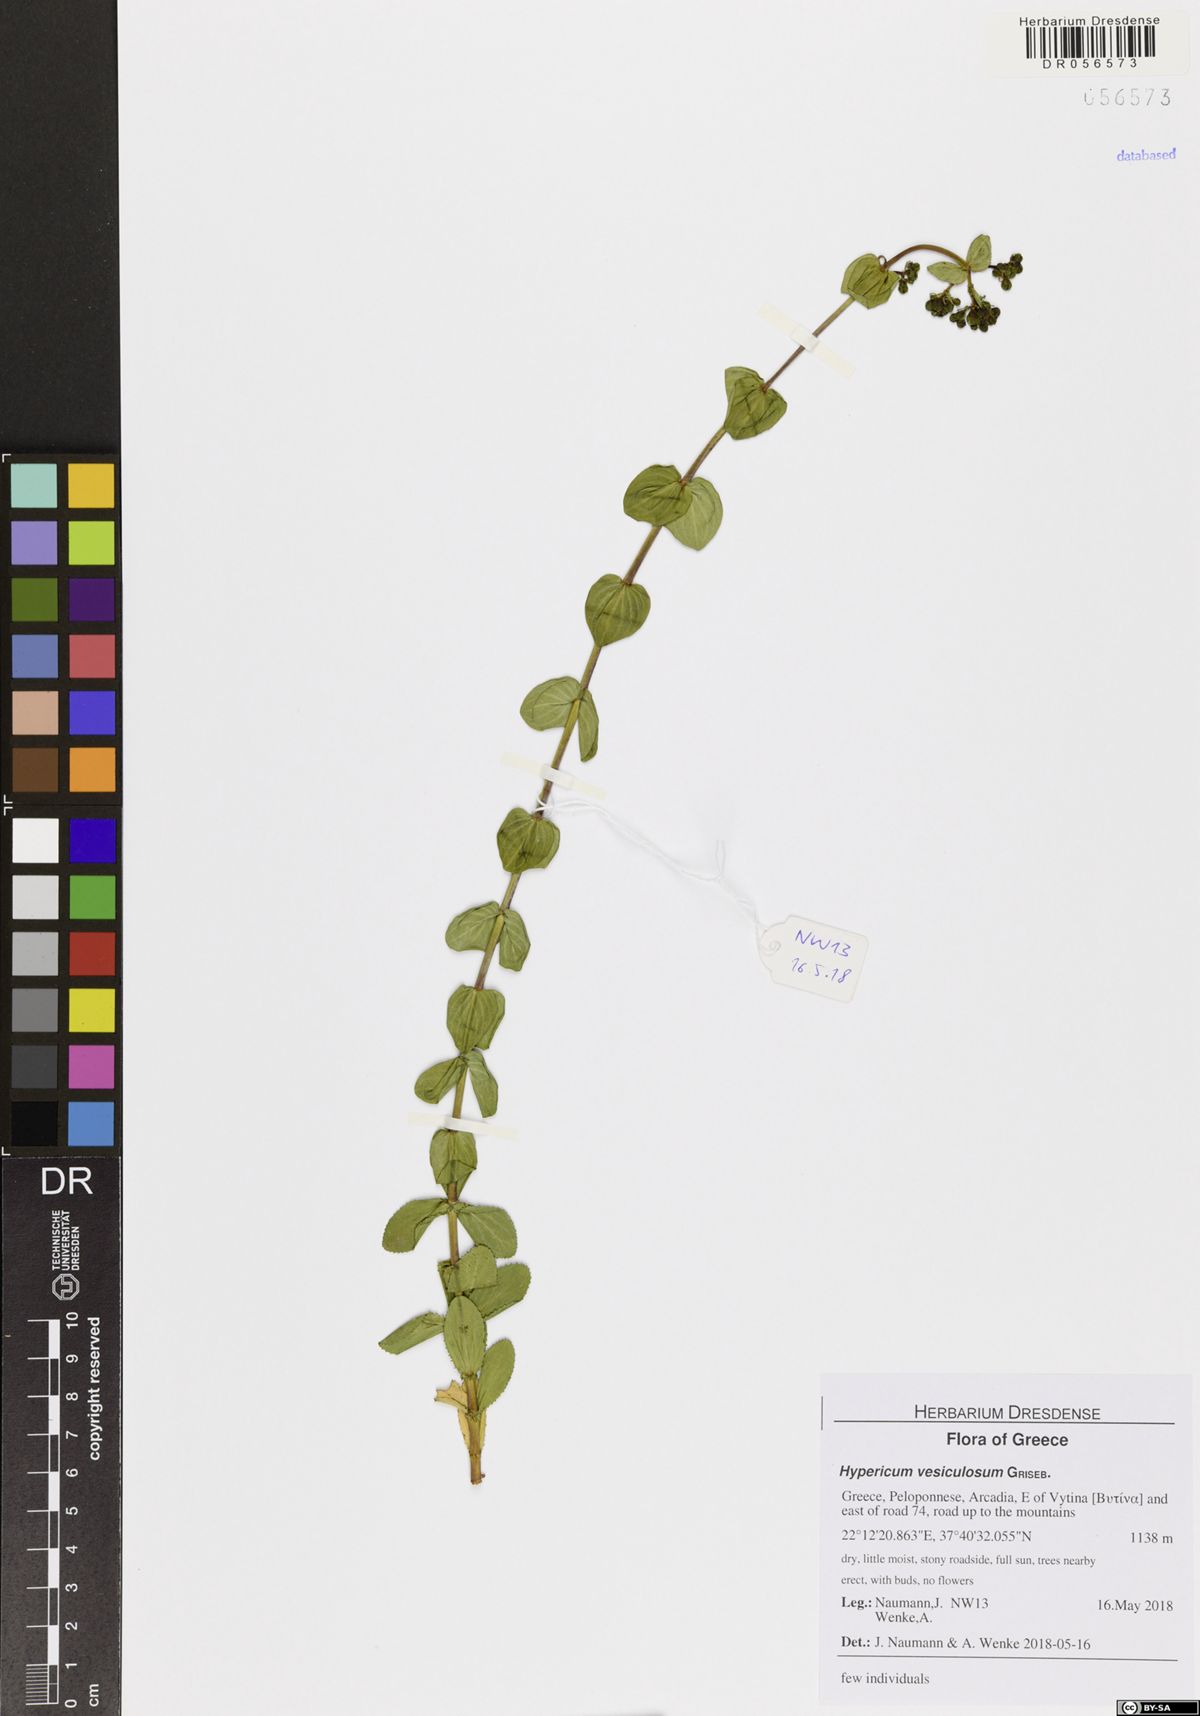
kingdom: Plantae
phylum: Tracheophyta
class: Magnoliopsida
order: Malpighiales
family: Hypericaceae
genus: Hypericum
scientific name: Hypericum vesiculosum
